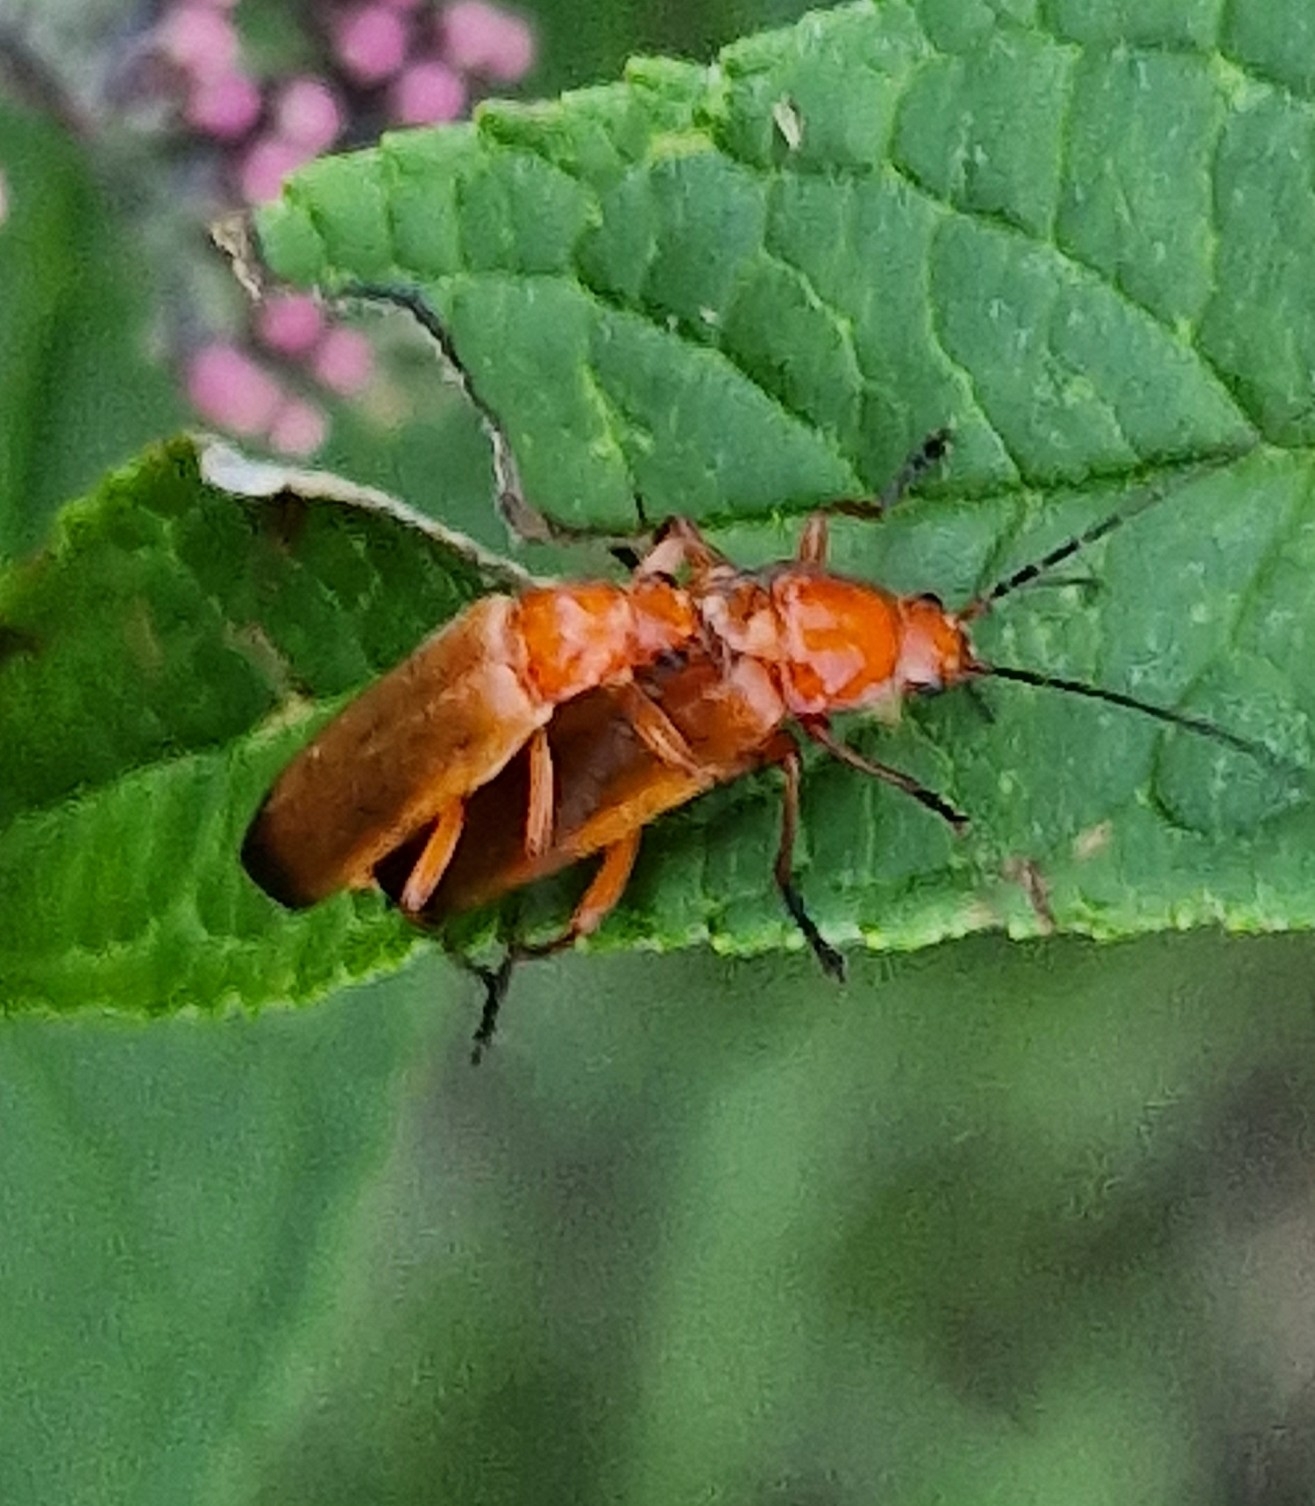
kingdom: Animalia
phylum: Arthropoda
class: Insecta
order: Coleoptera
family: Cantharidae
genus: Rhagonycha
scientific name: Rhagonycha fulva
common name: Præstebille
